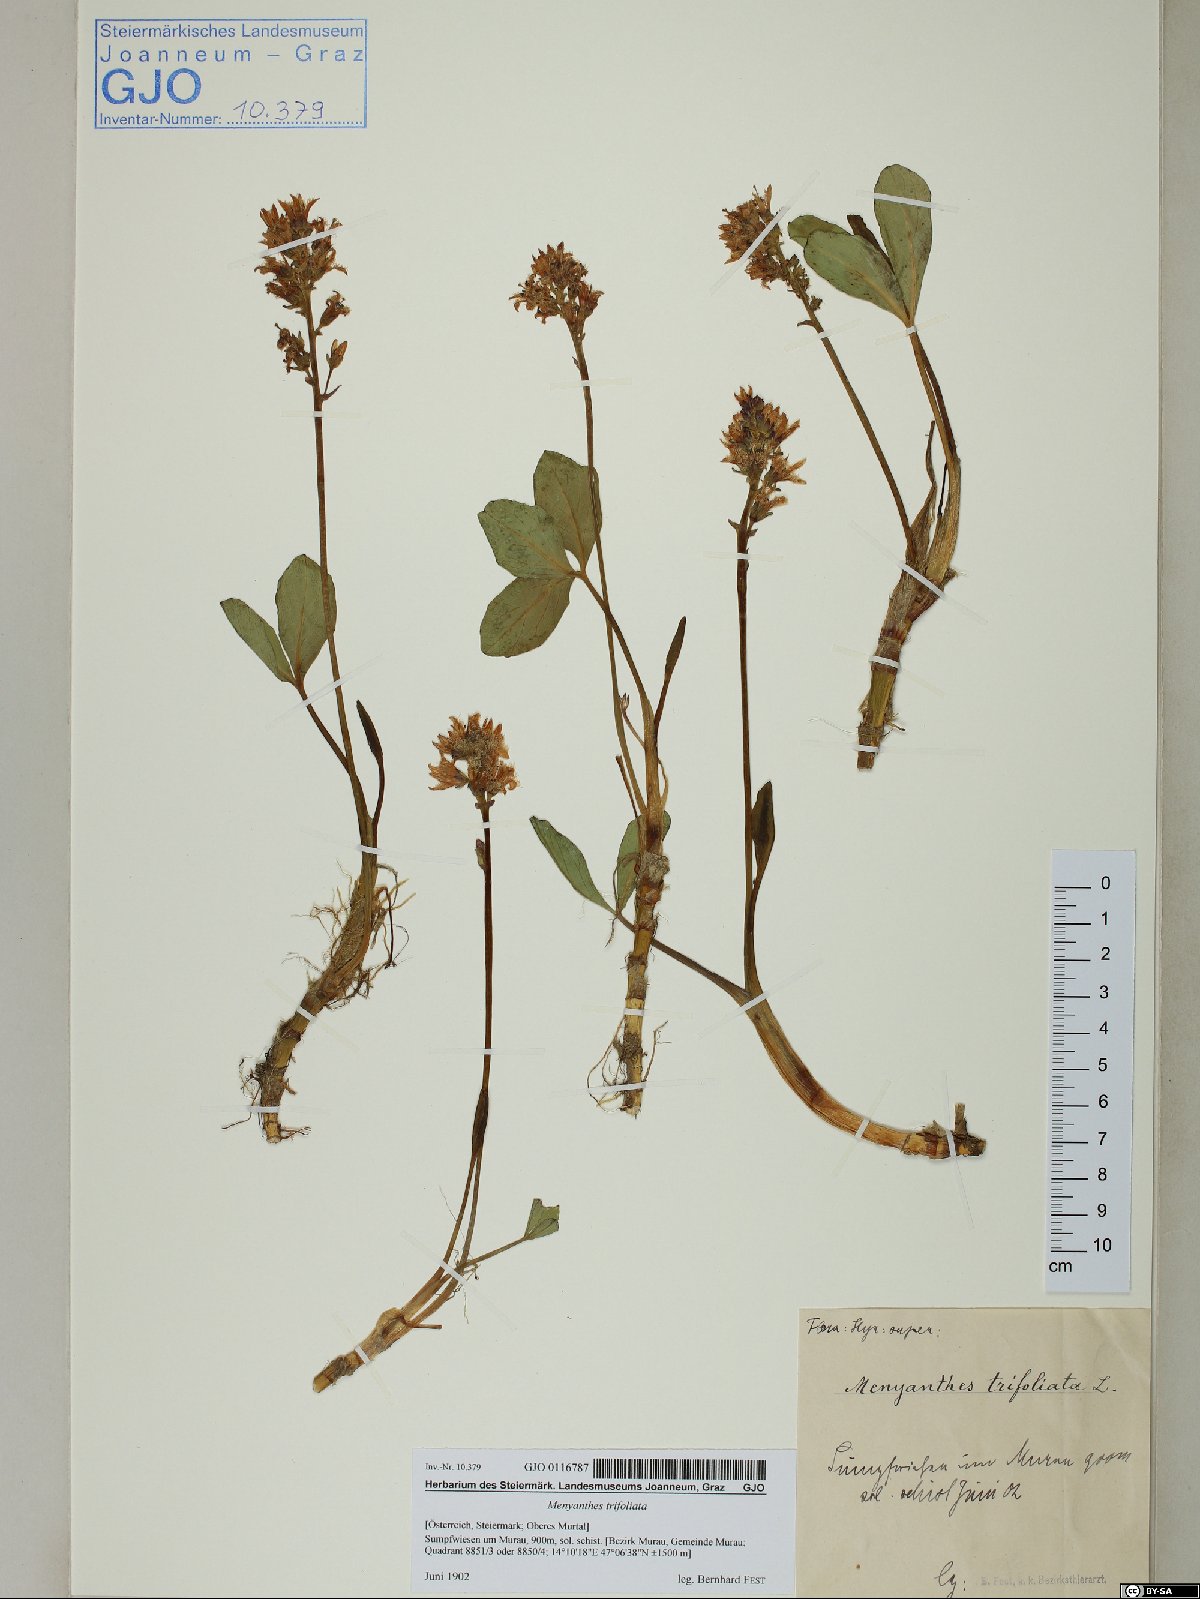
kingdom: Plantae
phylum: Tracheophyta
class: Magnoliopsida
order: Asterales
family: Menyanthaceae
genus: Menyanthes
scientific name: Menyanthes trifoliata
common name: Bogbean
